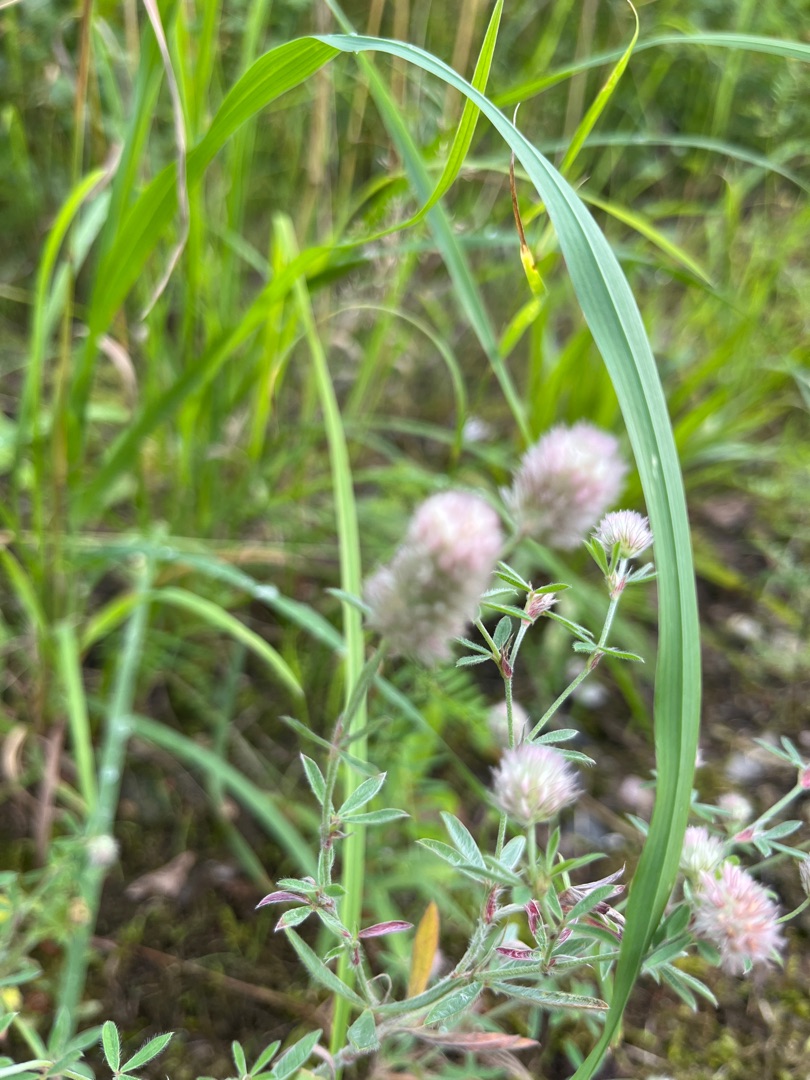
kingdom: Plantae
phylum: Tracheophyta
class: Magnoliopsida
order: Fabales
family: Fabaceae
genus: Trifolium
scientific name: Trifolium arvense
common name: Hare-kløver
